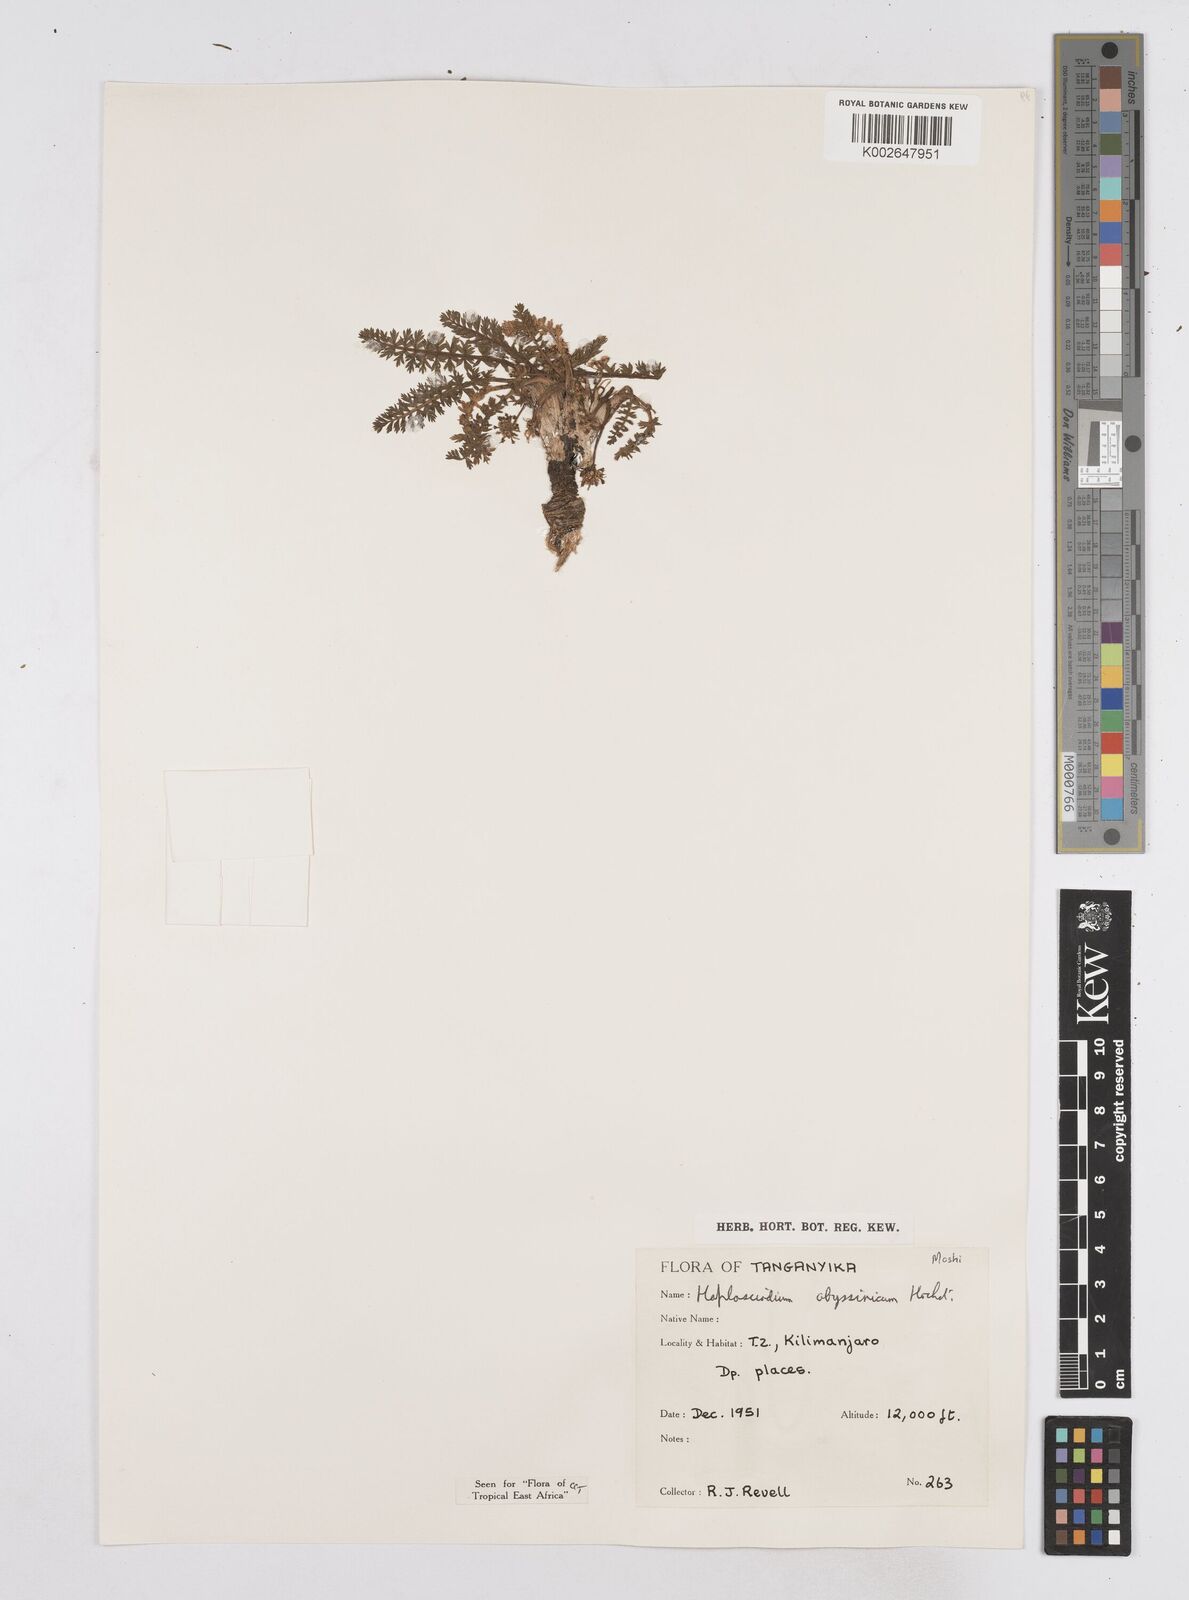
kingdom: Plantae
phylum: Tracheophyta
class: Magnoliopsida
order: Apiales
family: Apiaceae
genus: Haplosciadium
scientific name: Haplosciadium abyssinicum
